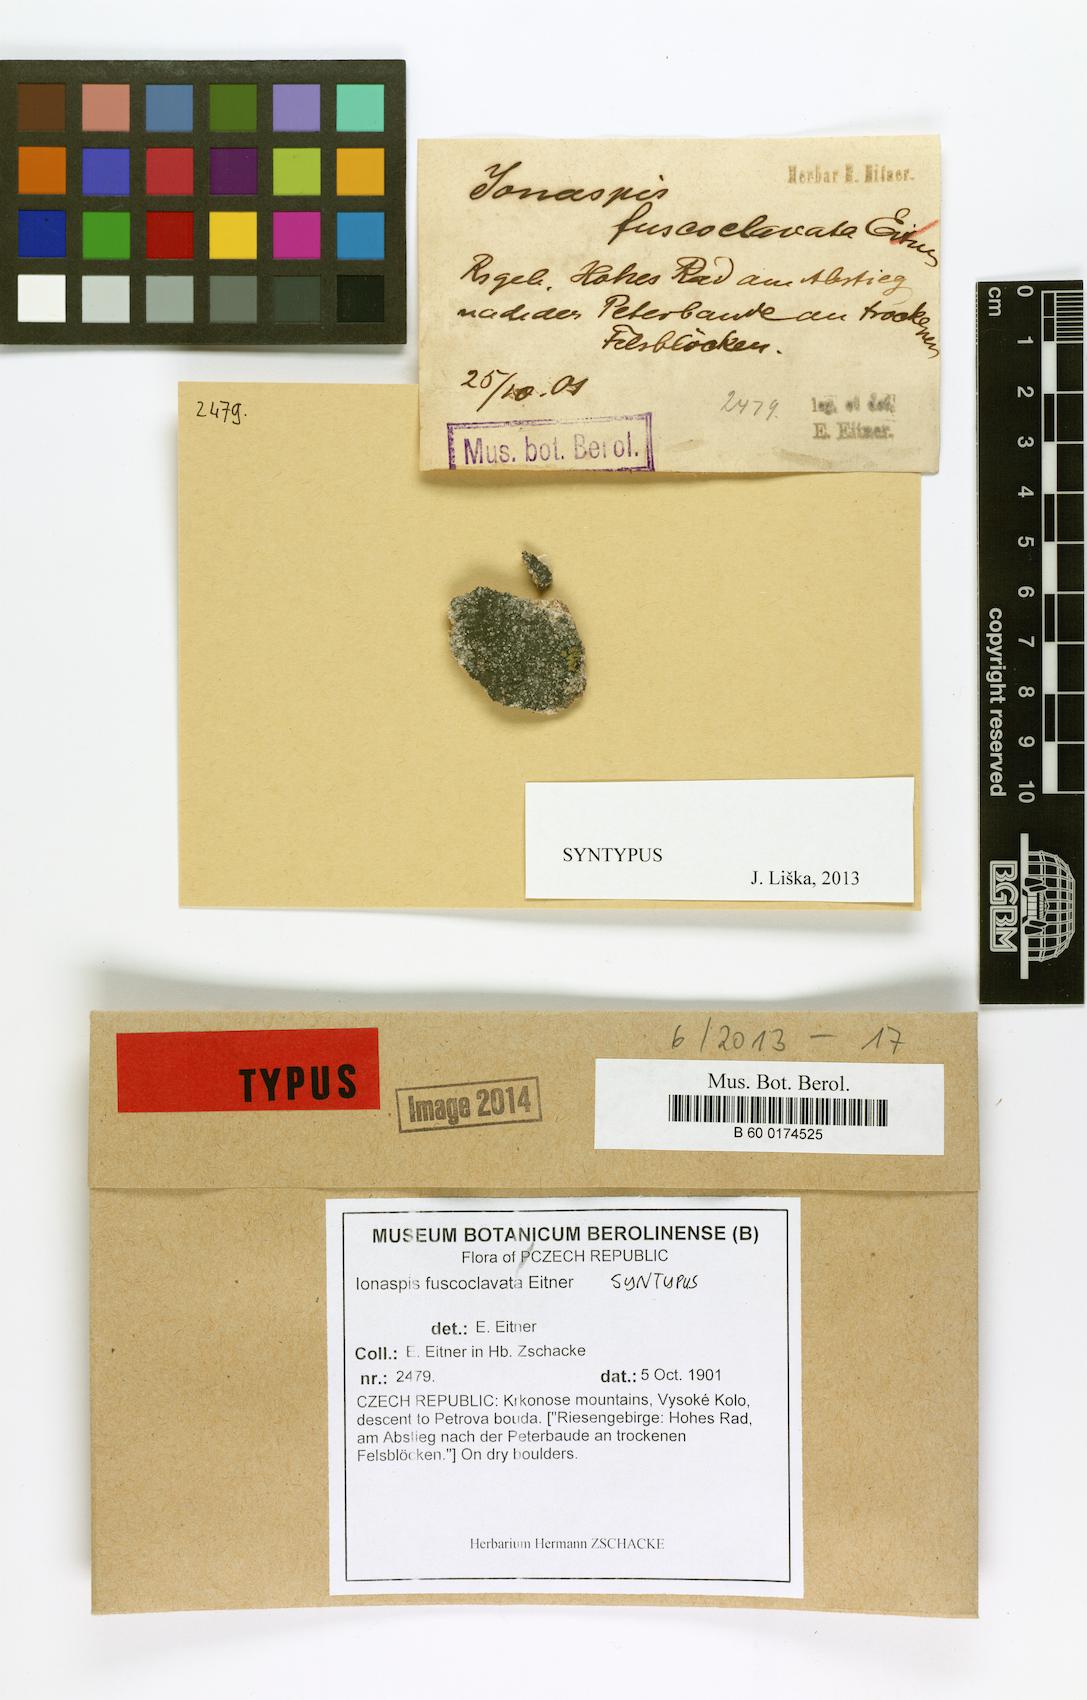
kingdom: Fungi
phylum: Ascomycota
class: Lecanoromycetes
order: Hymeneliales
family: Hymeneliaceae
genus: Ionaspis
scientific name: Ionaspis
